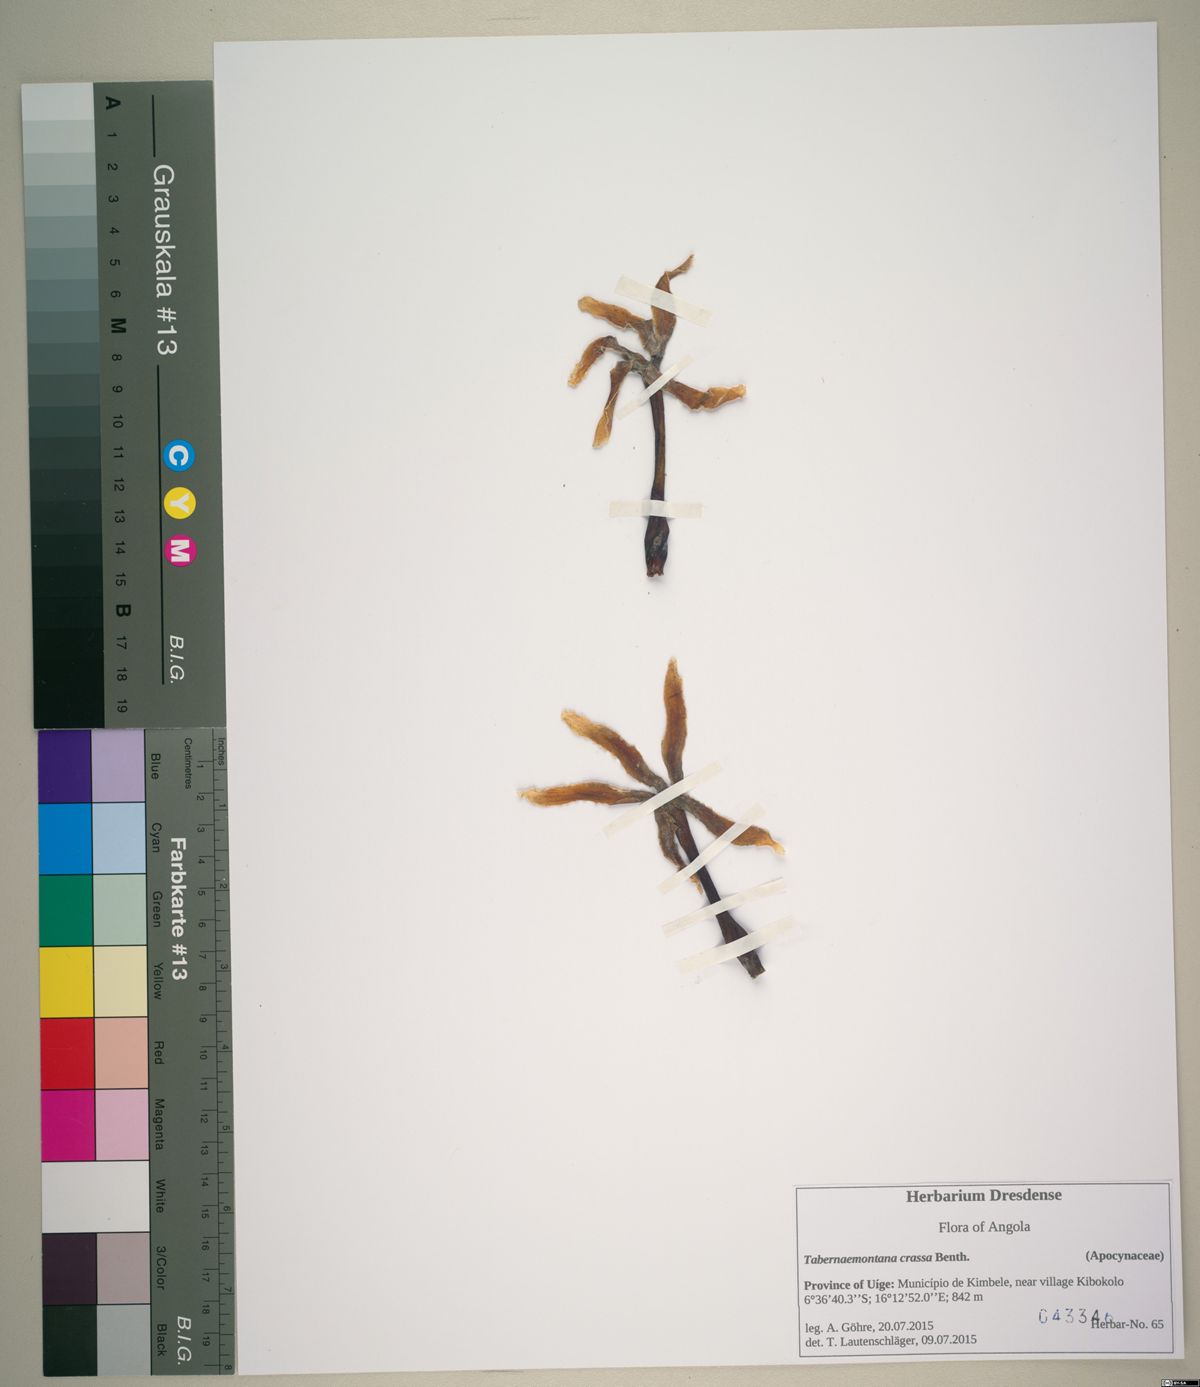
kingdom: Plantae
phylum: Tracheophyta
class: Magnoliopsida
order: Gentianales
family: Apocynaceae
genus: Tabernaemontana
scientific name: Tabernaemontana crassa
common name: Adam's-apple-flower
